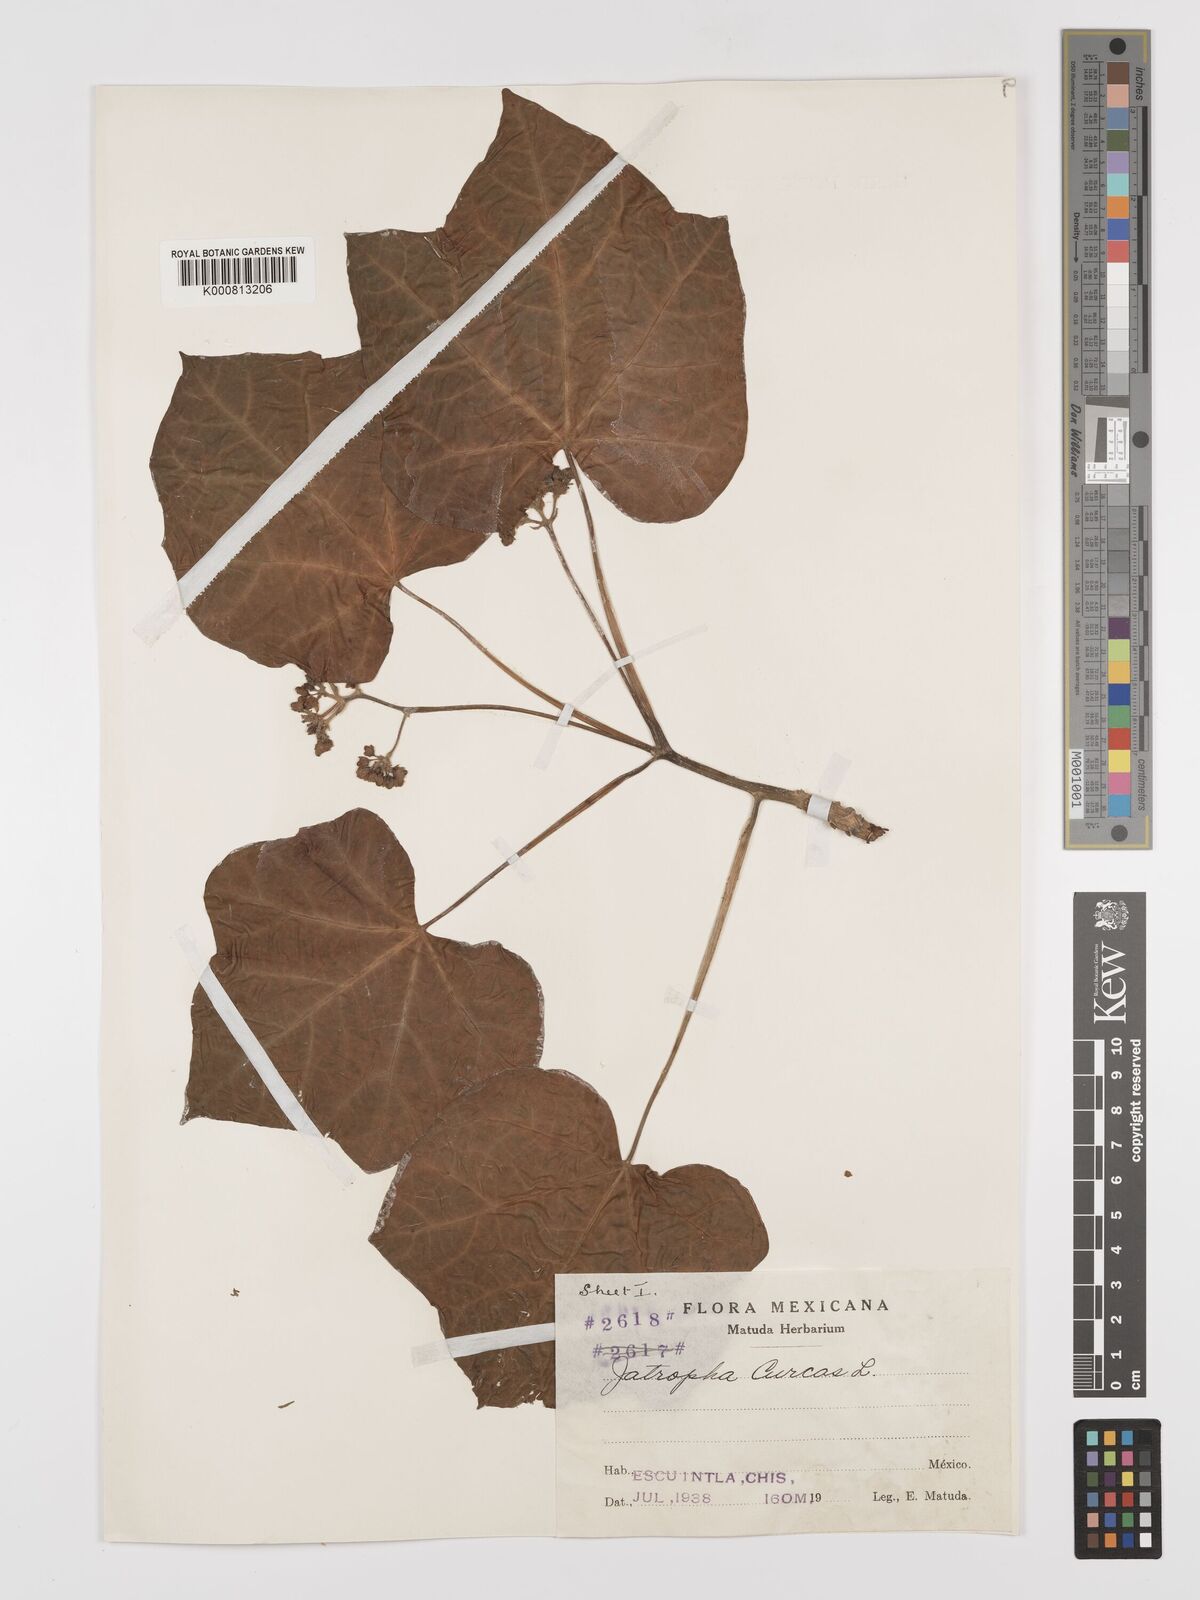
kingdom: Plantae
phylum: Tracheophyta
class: Magnoliopsida
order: Malpighiales
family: Euphorbiaceae
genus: Jatropha
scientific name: Jatropha curcas
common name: Barbados nut
